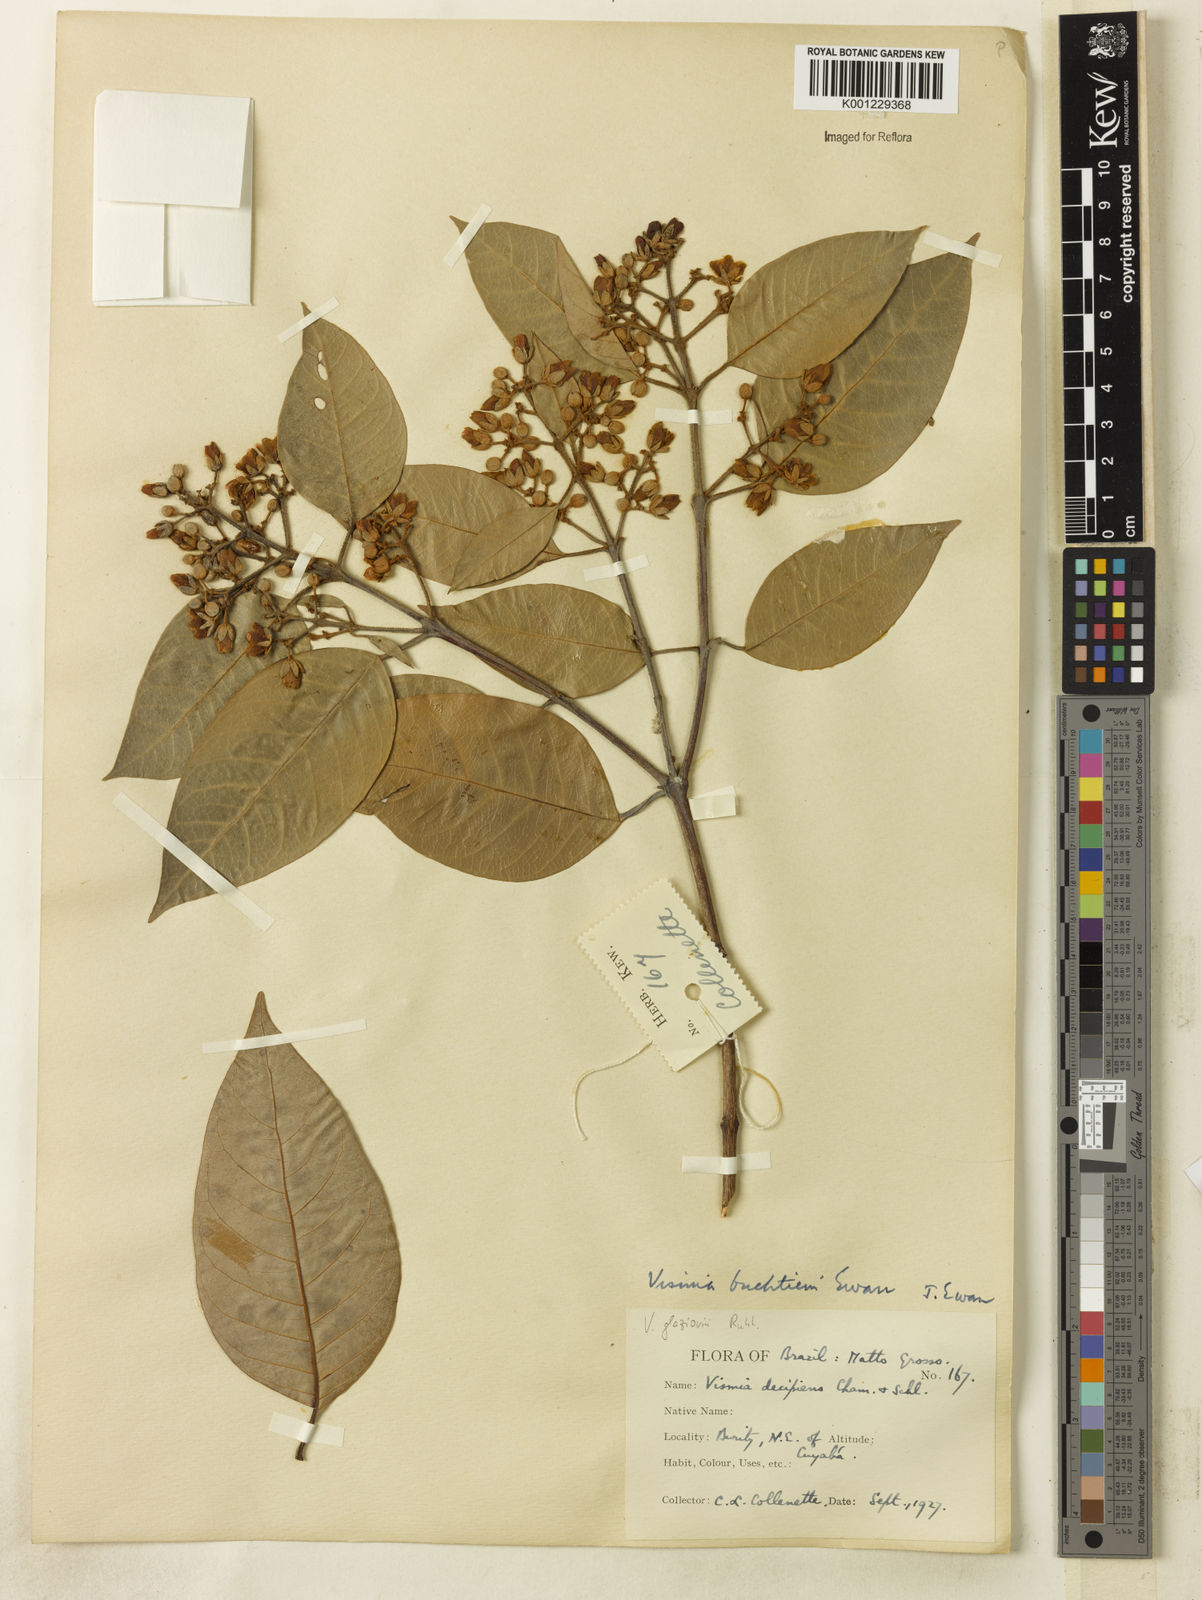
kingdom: Plantae
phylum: Tracheophyta
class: Magnoliopsida
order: Malpighiales
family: Hypericaceae
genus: Vismia
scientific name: Vismia gracilis
